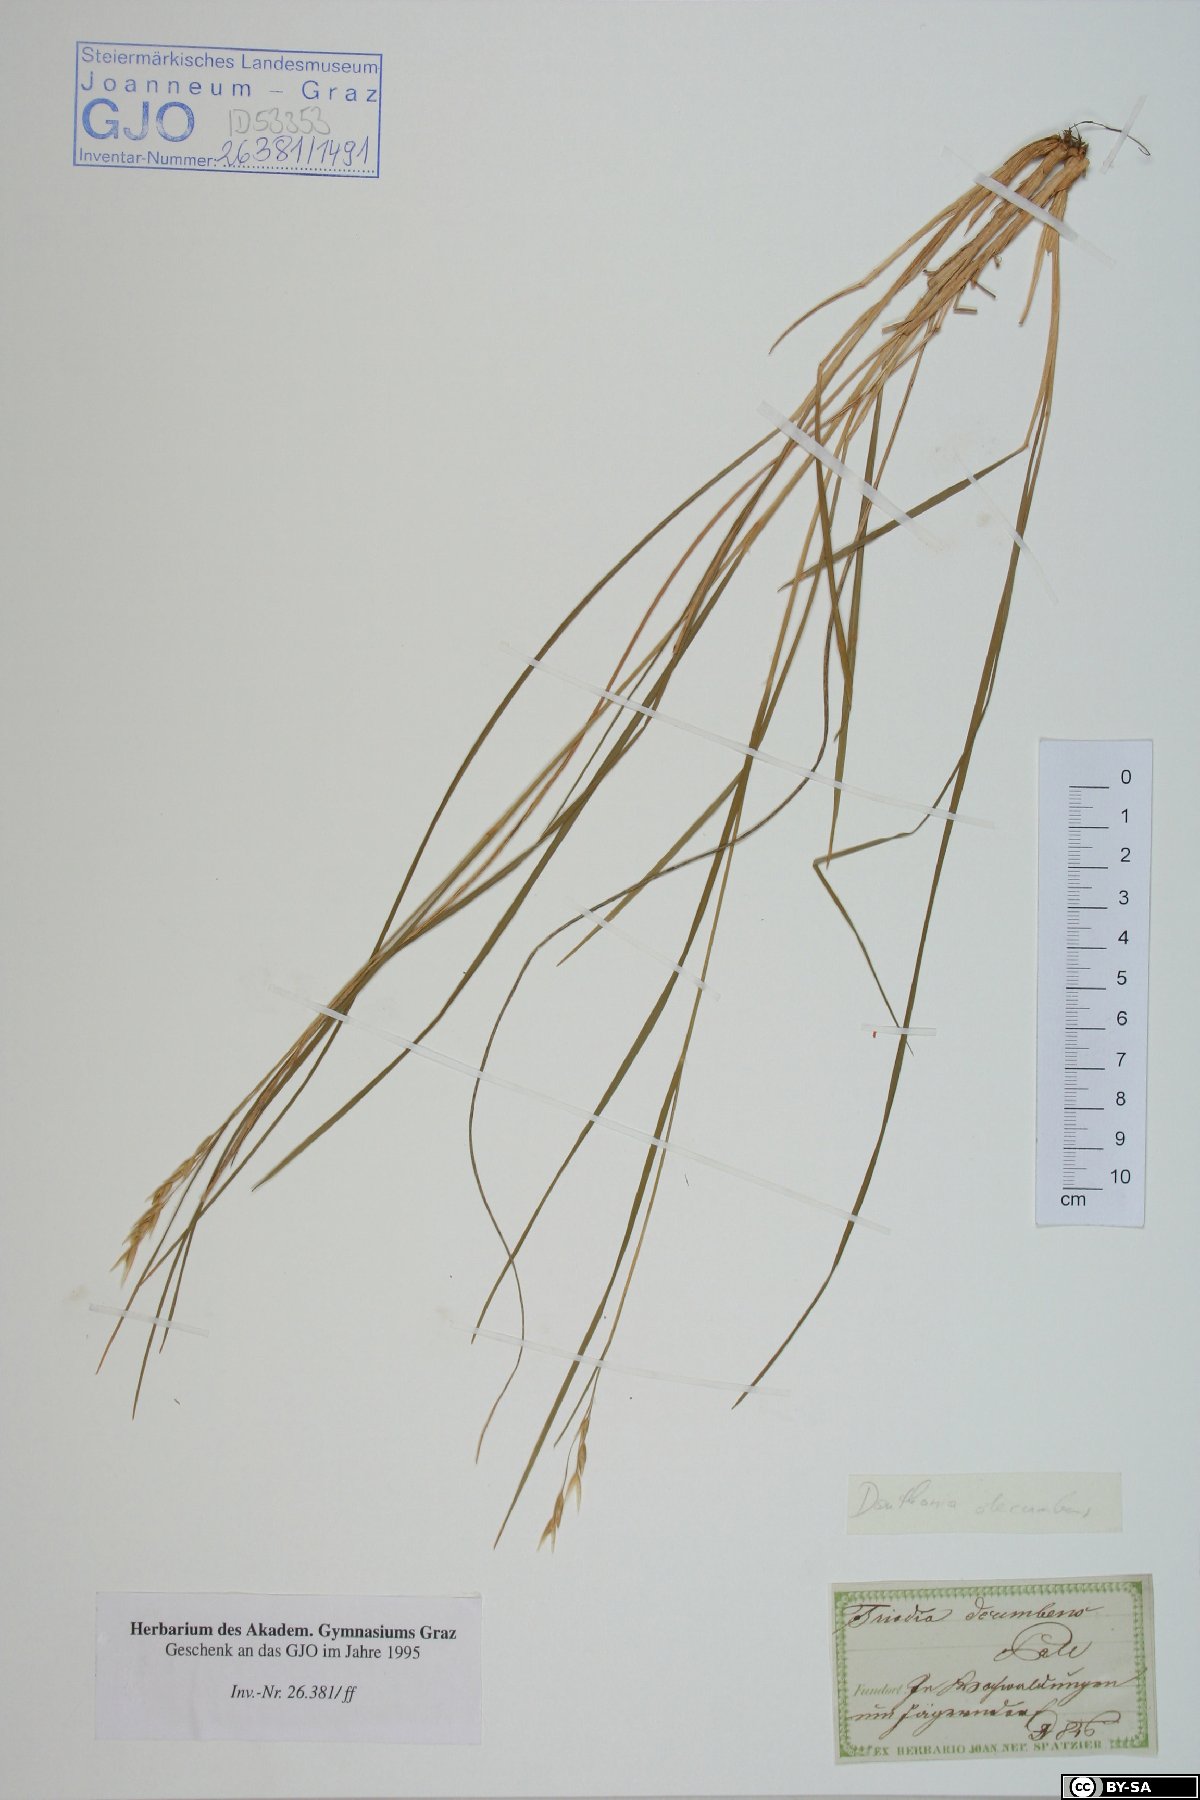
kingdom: Plantae
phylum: Tracheophyta
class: Liliopsida
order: Poales
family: Poaceae
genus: Danthonia
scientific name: Danthonia decumbens
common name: Common heathgrass
